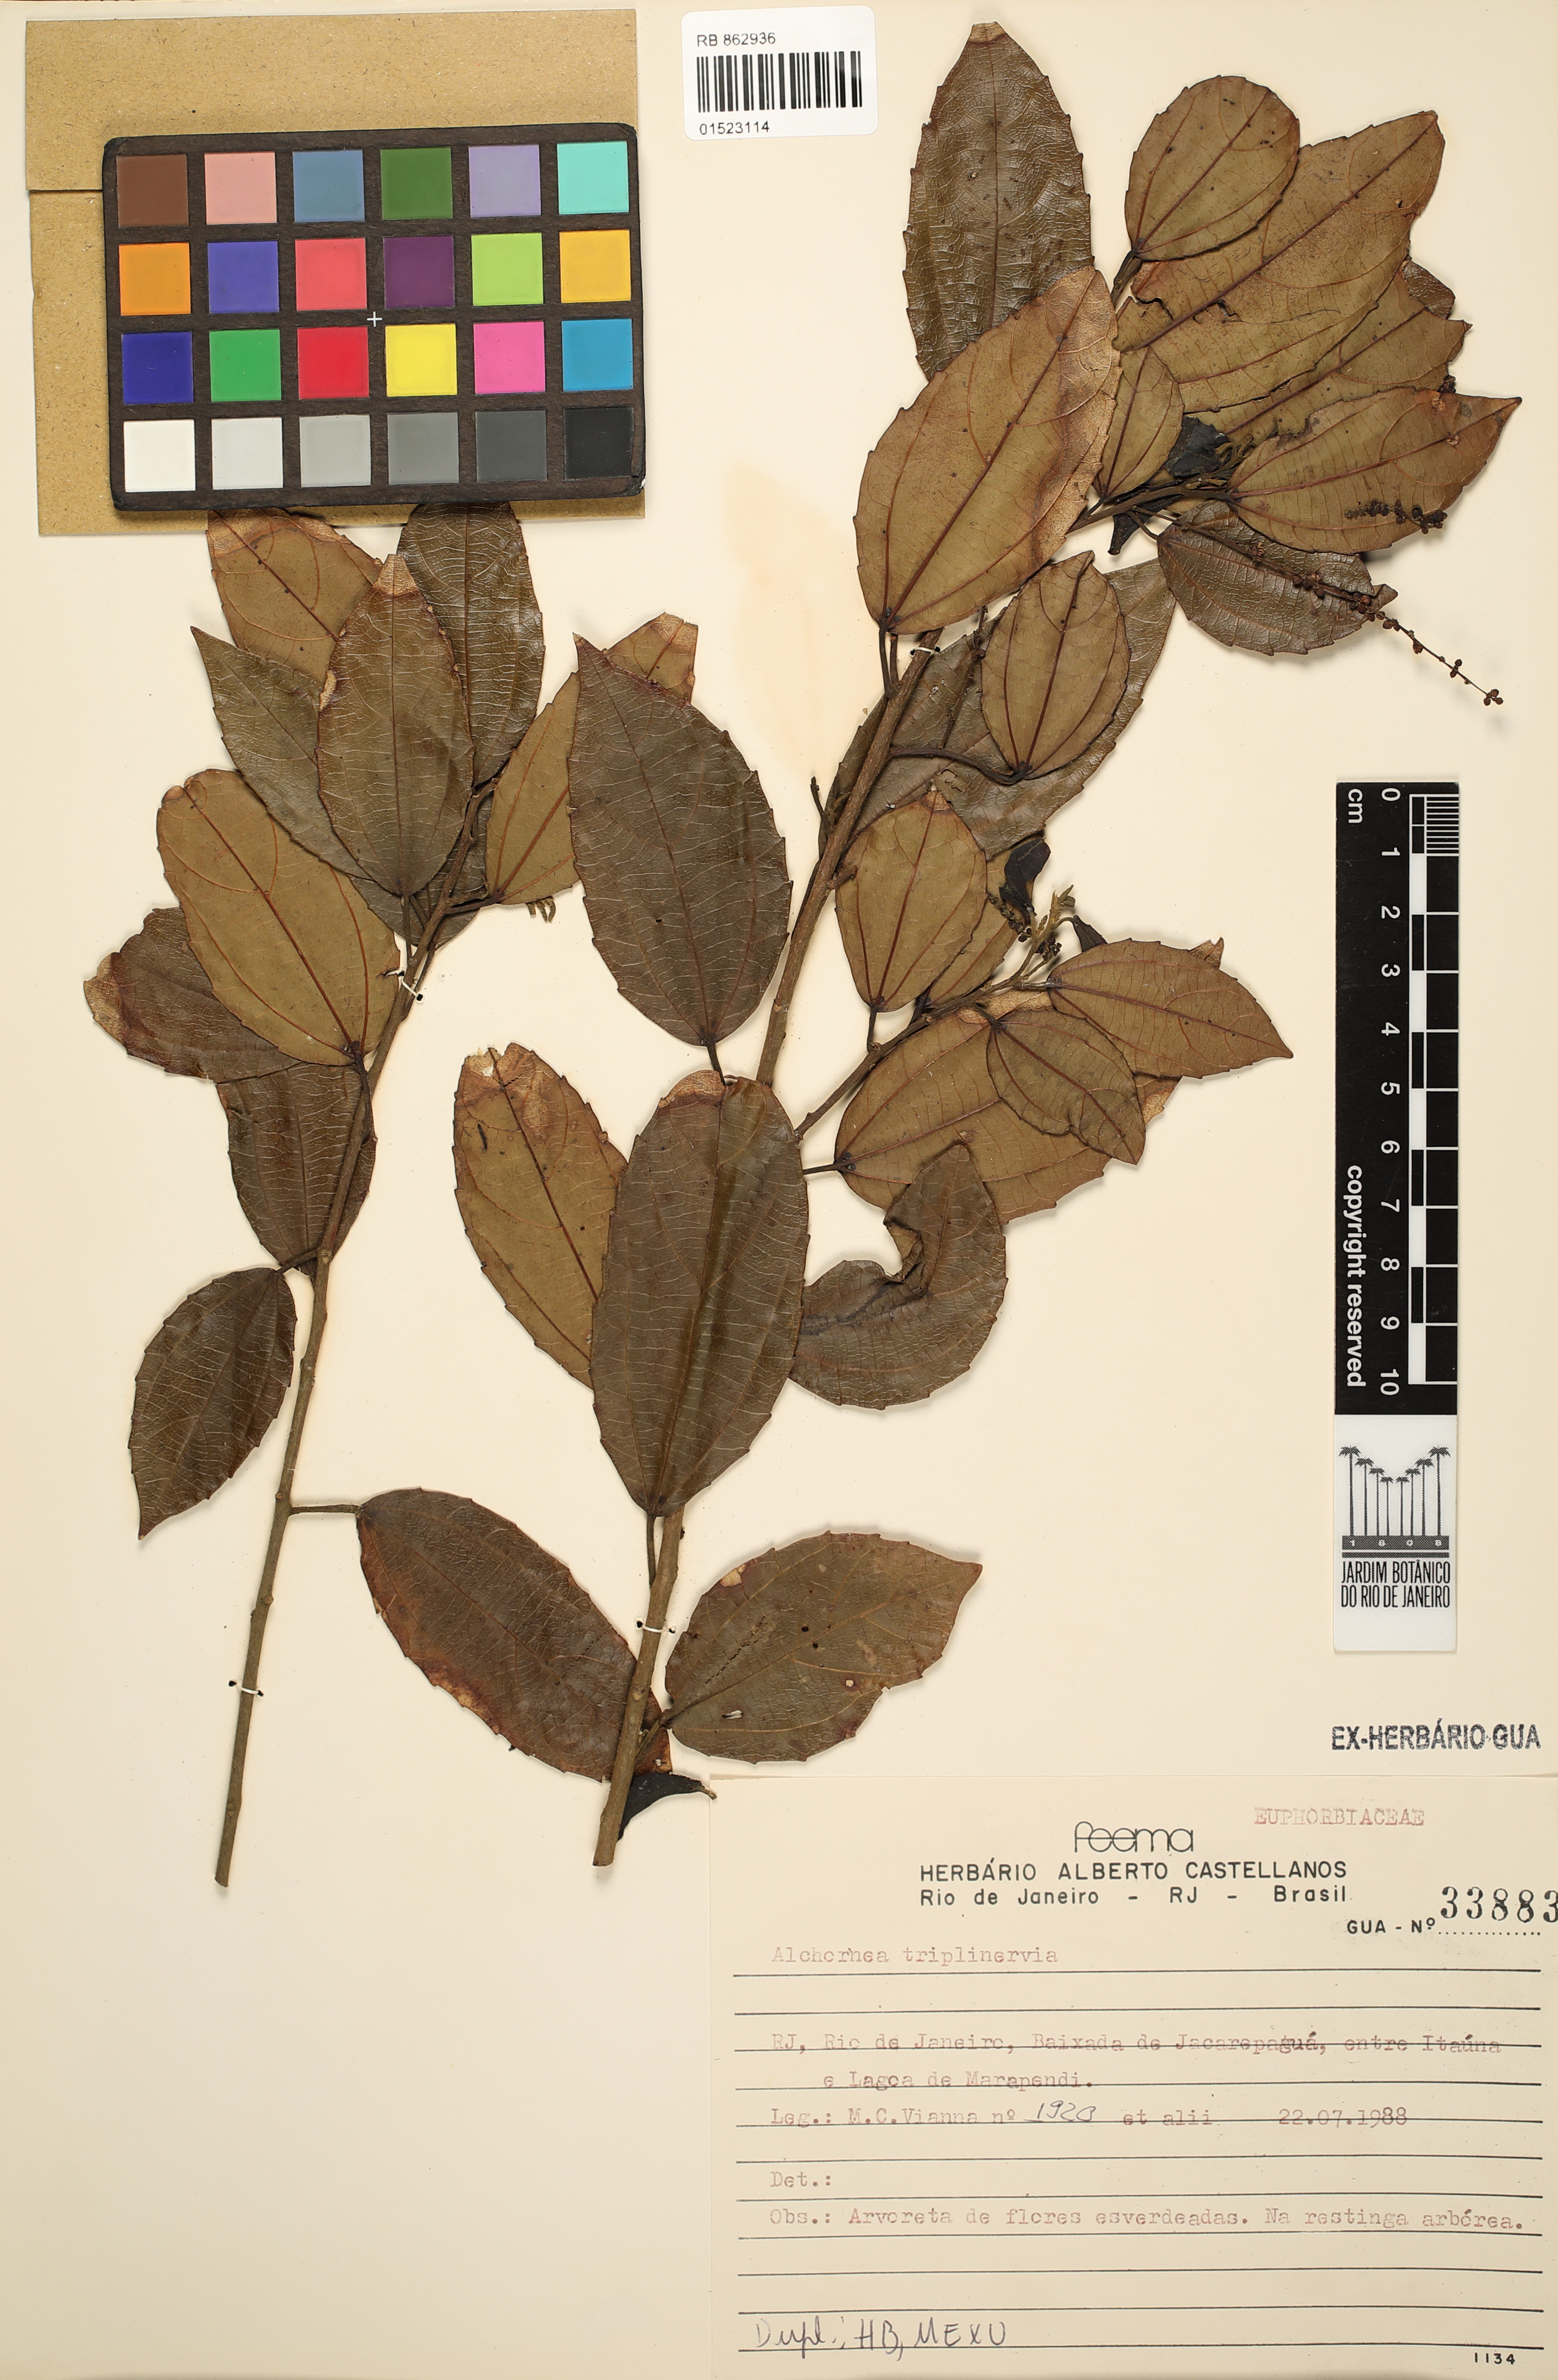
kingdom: Plantae
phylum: Tracheophyta
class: Magnoliopsida
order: Malpighiales
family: Euphorbiaceae
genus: Alchornea
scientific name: Alchornea triplinervia
